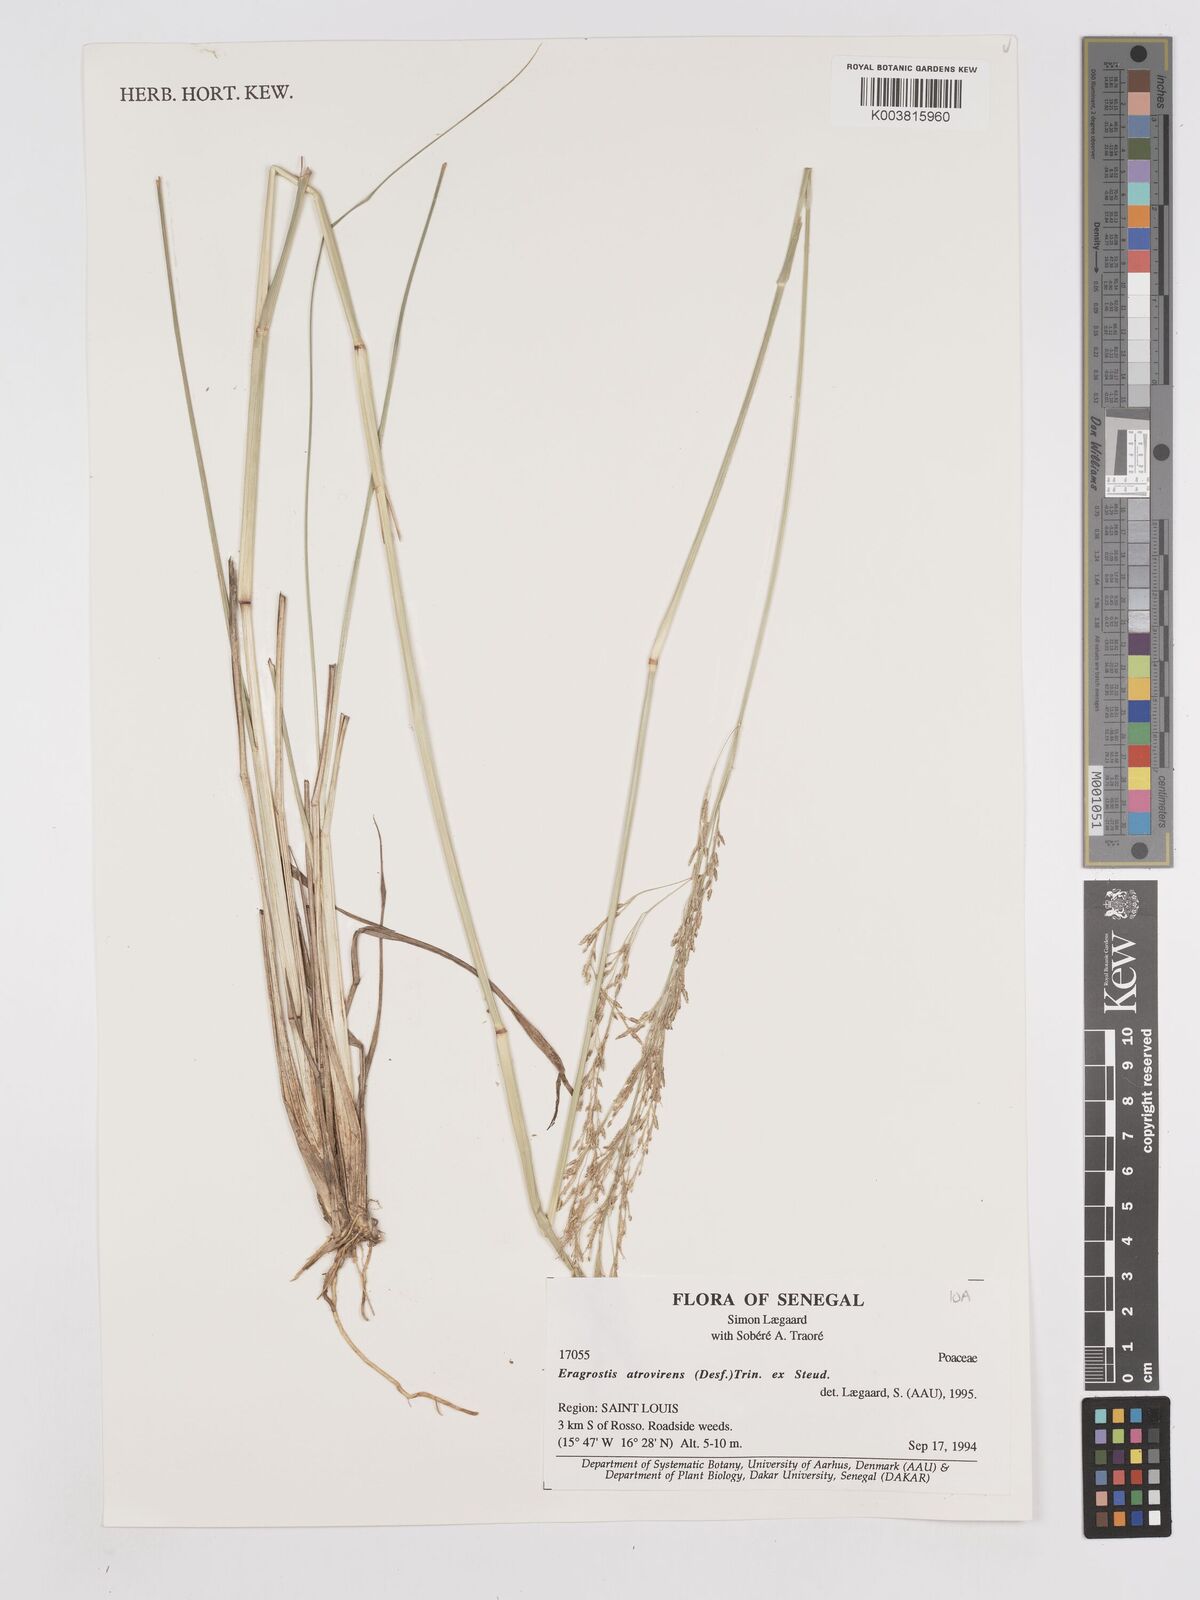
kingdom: Plantae
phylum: Tracheophyta
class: Liliopsida
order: Poales
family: Poaceae
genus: Eragrostis
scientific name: Eragrostis atrovirens
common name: Thalia lovegrass
